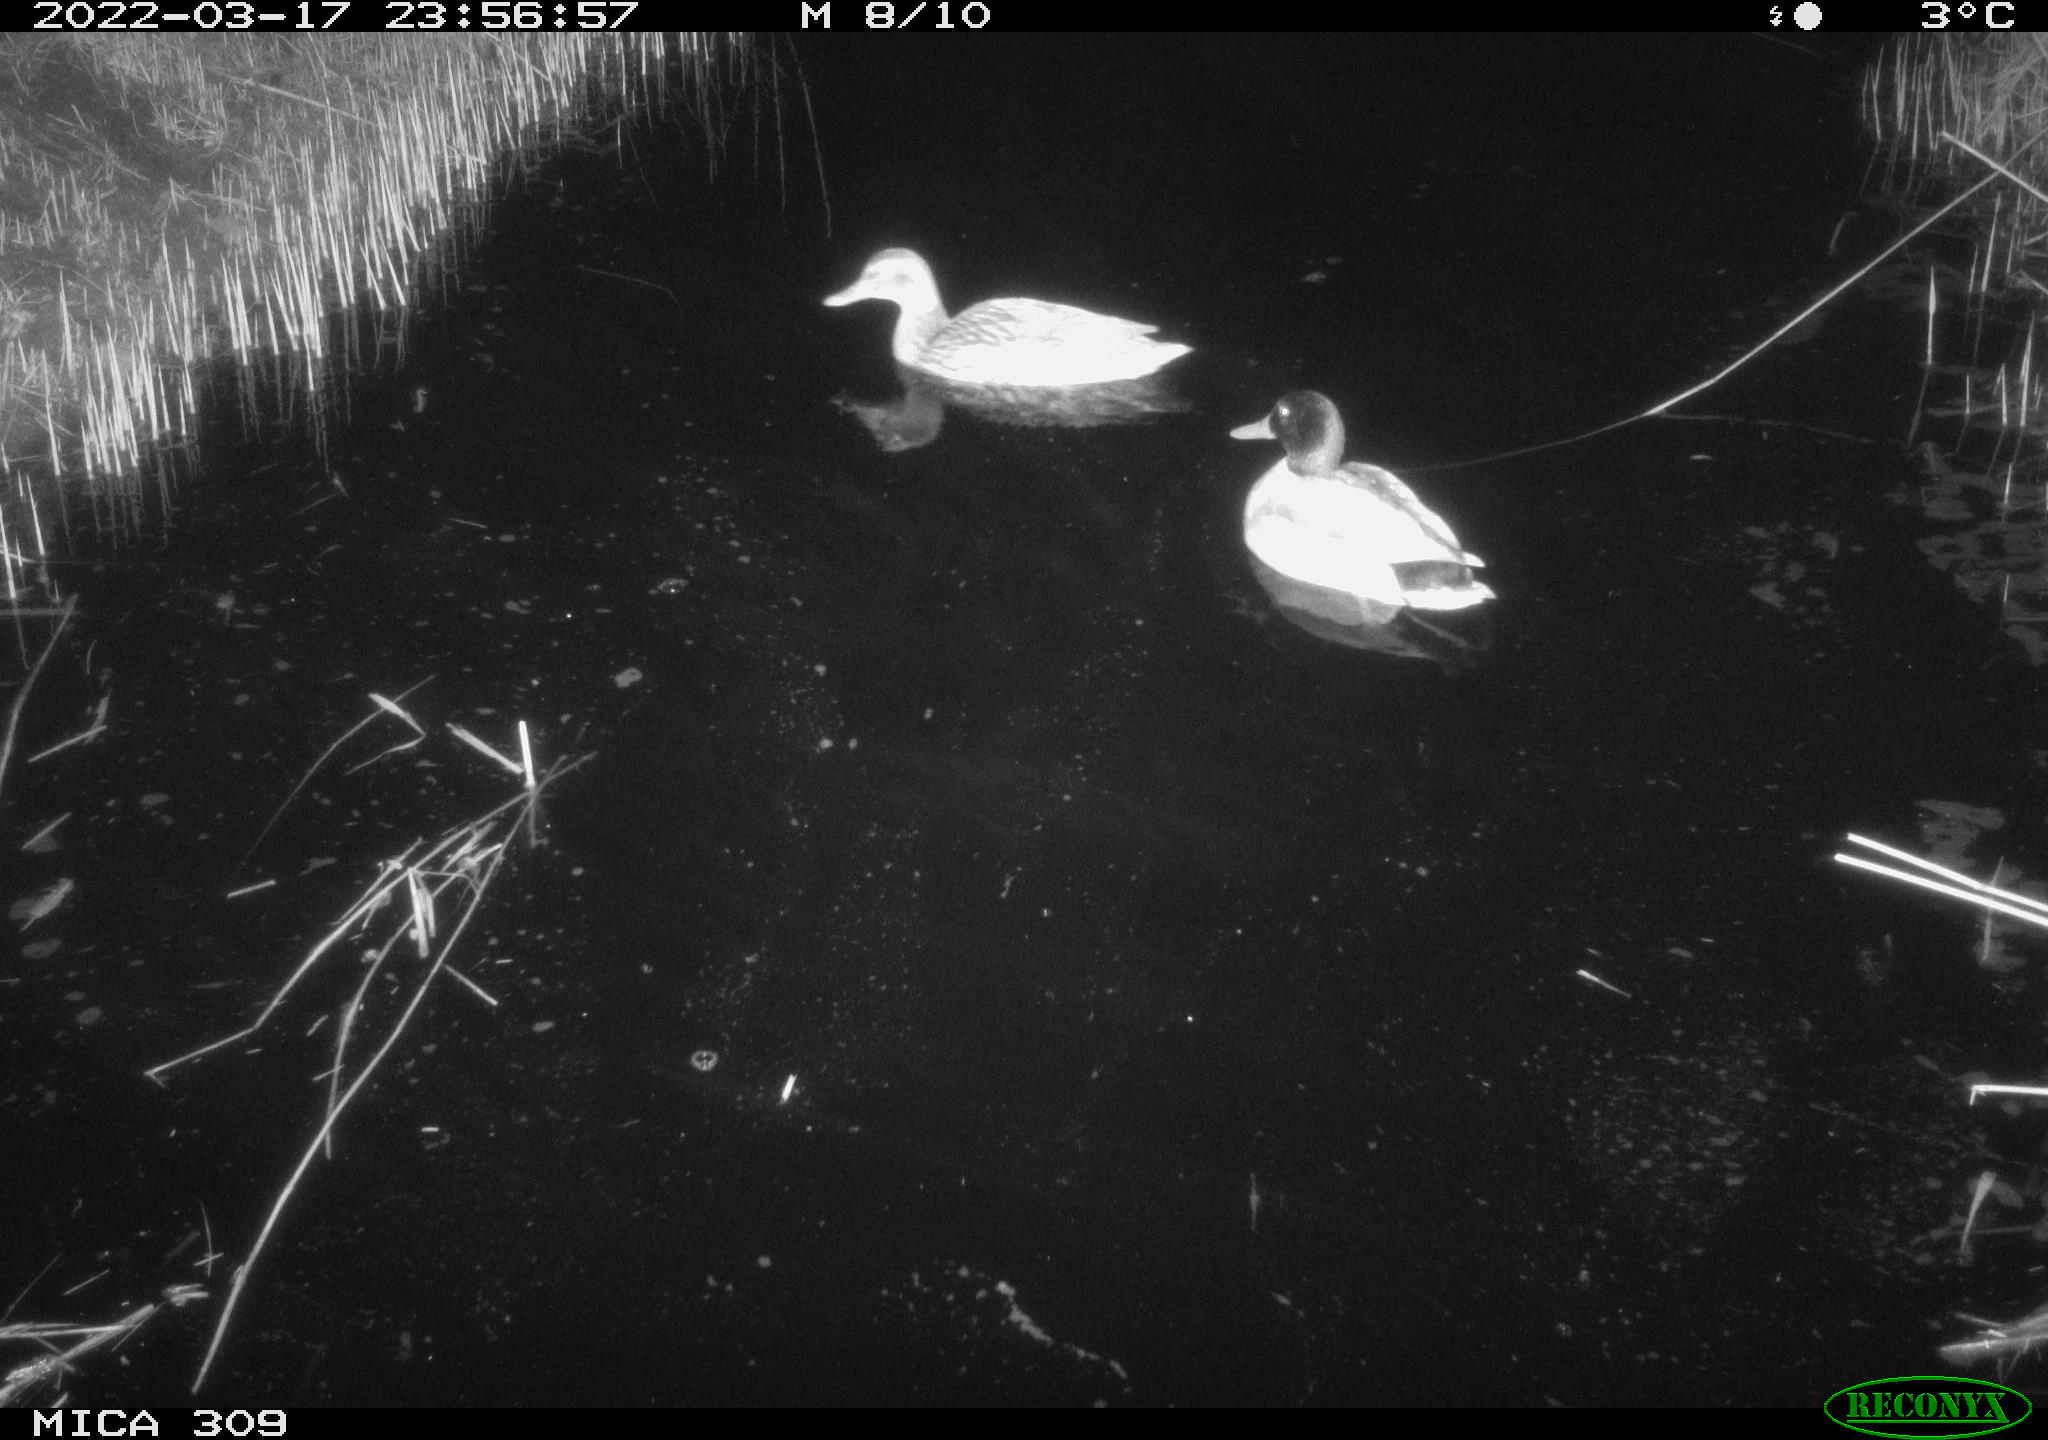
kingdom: Animalia
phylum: Chordata
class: Aves
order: Anseriformes
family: Anatidae
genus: Anas
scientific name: Anas platyrhynchos
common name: Mallard
